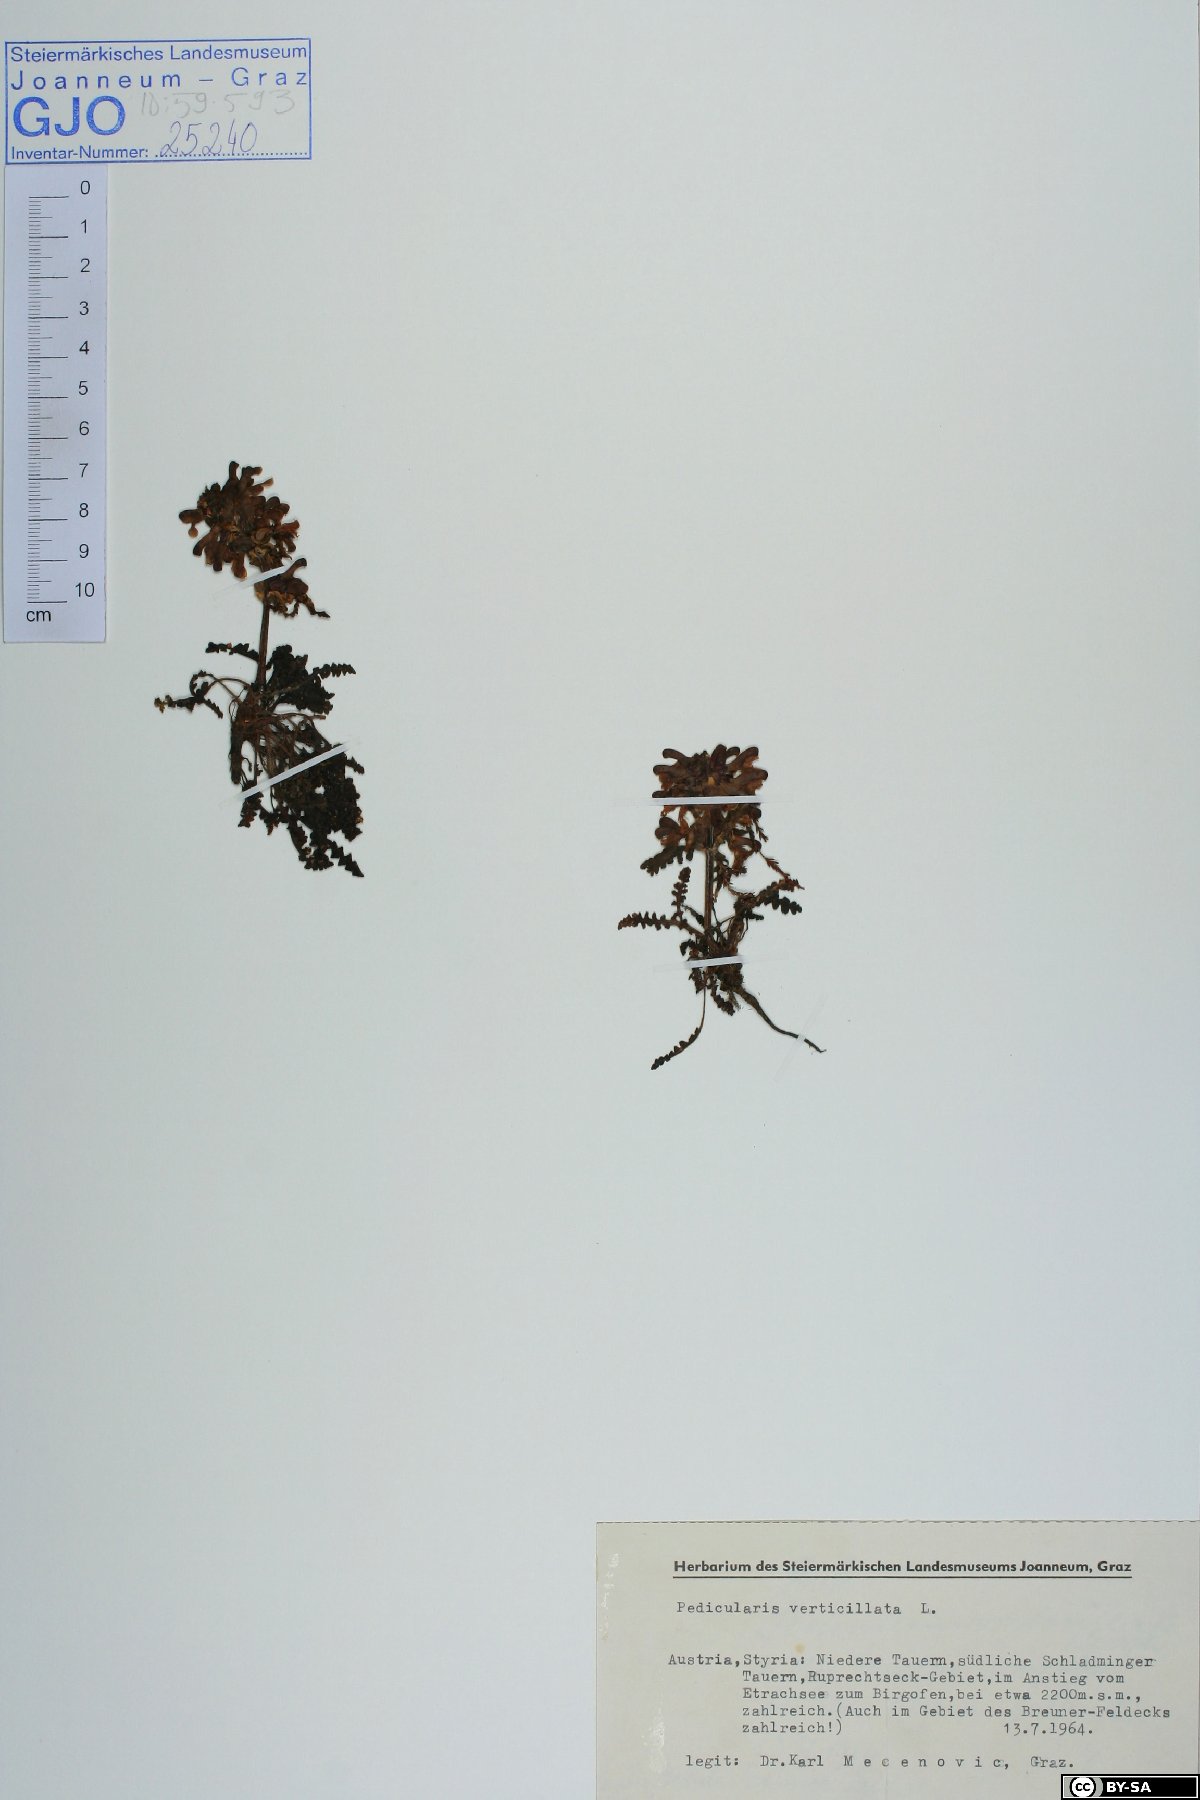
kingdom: Plantae
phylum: Tracheophyta
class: Magnoliopsida
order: Lamiales
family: Orobanchaceae
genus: Pedicularis
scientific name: Pedicularis verticillata
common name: Whorled lousewort
